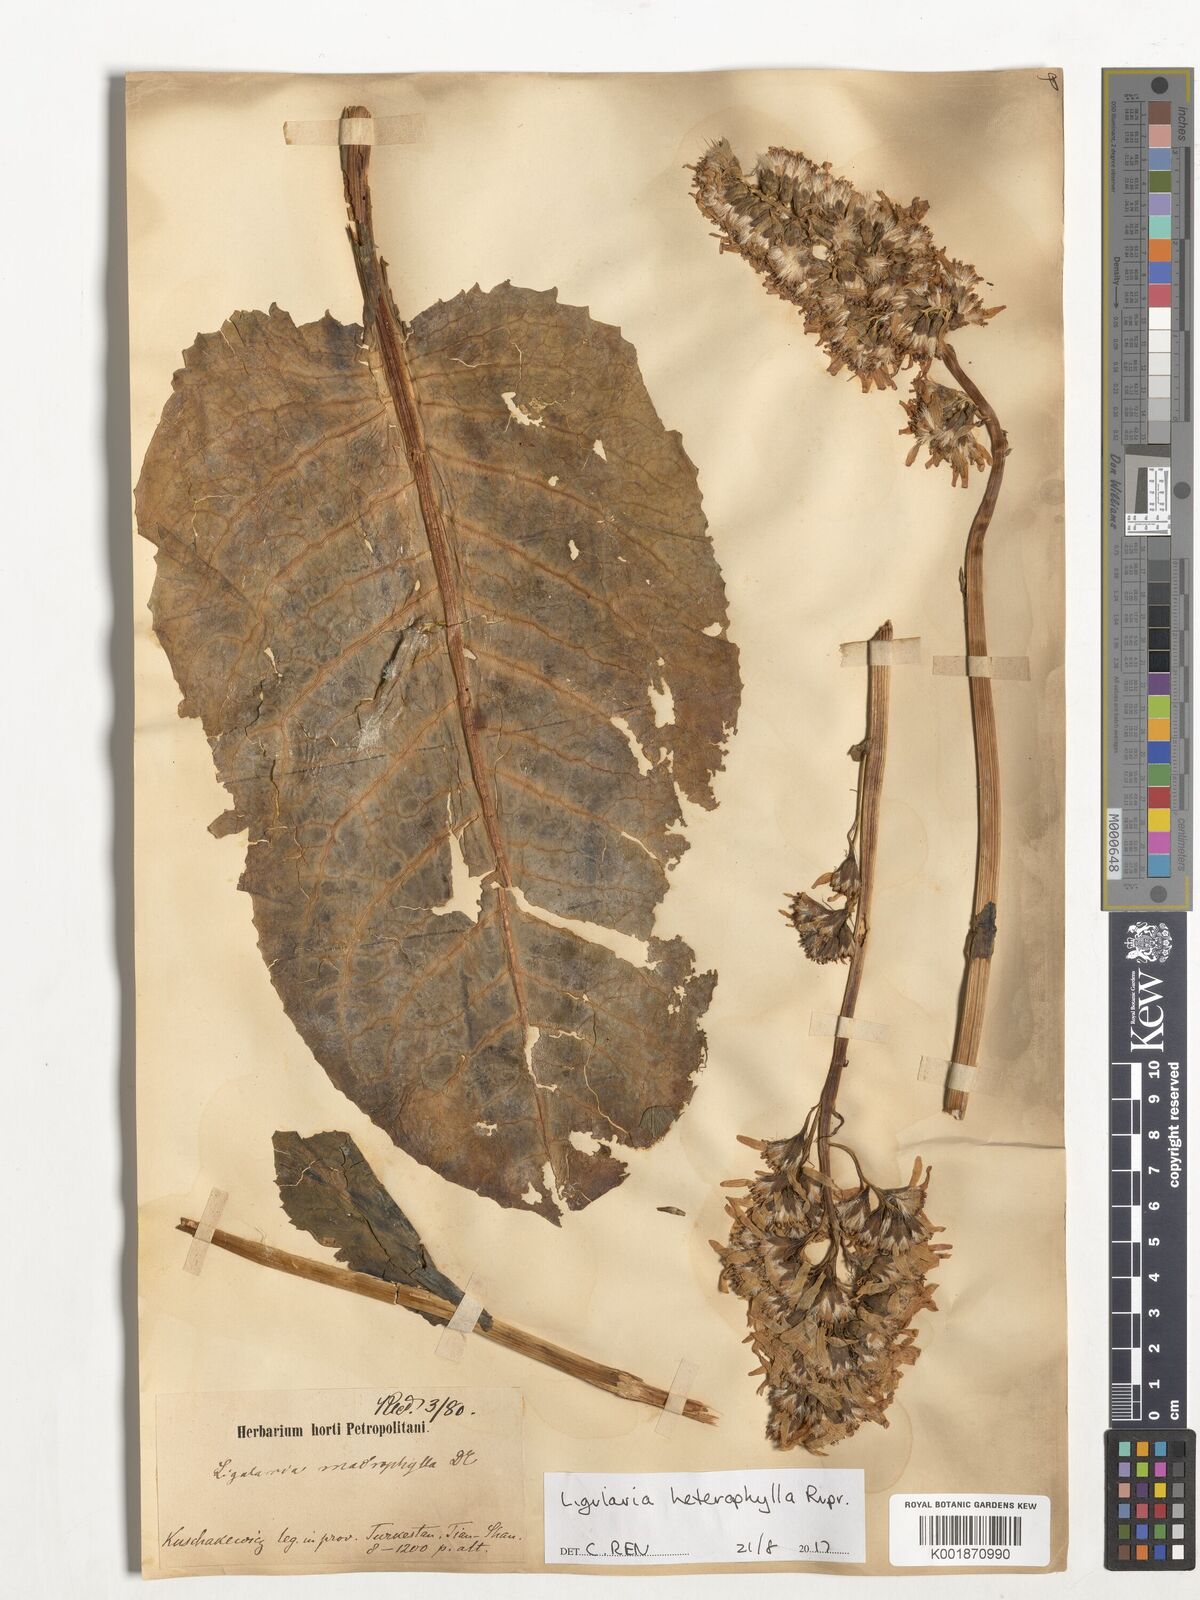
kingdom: Plantae
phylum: Tracheophyta
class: Magnoliopsida
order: Asterales
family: Asteraceae
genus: Ligularia
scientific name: Ligularia heterophylla
